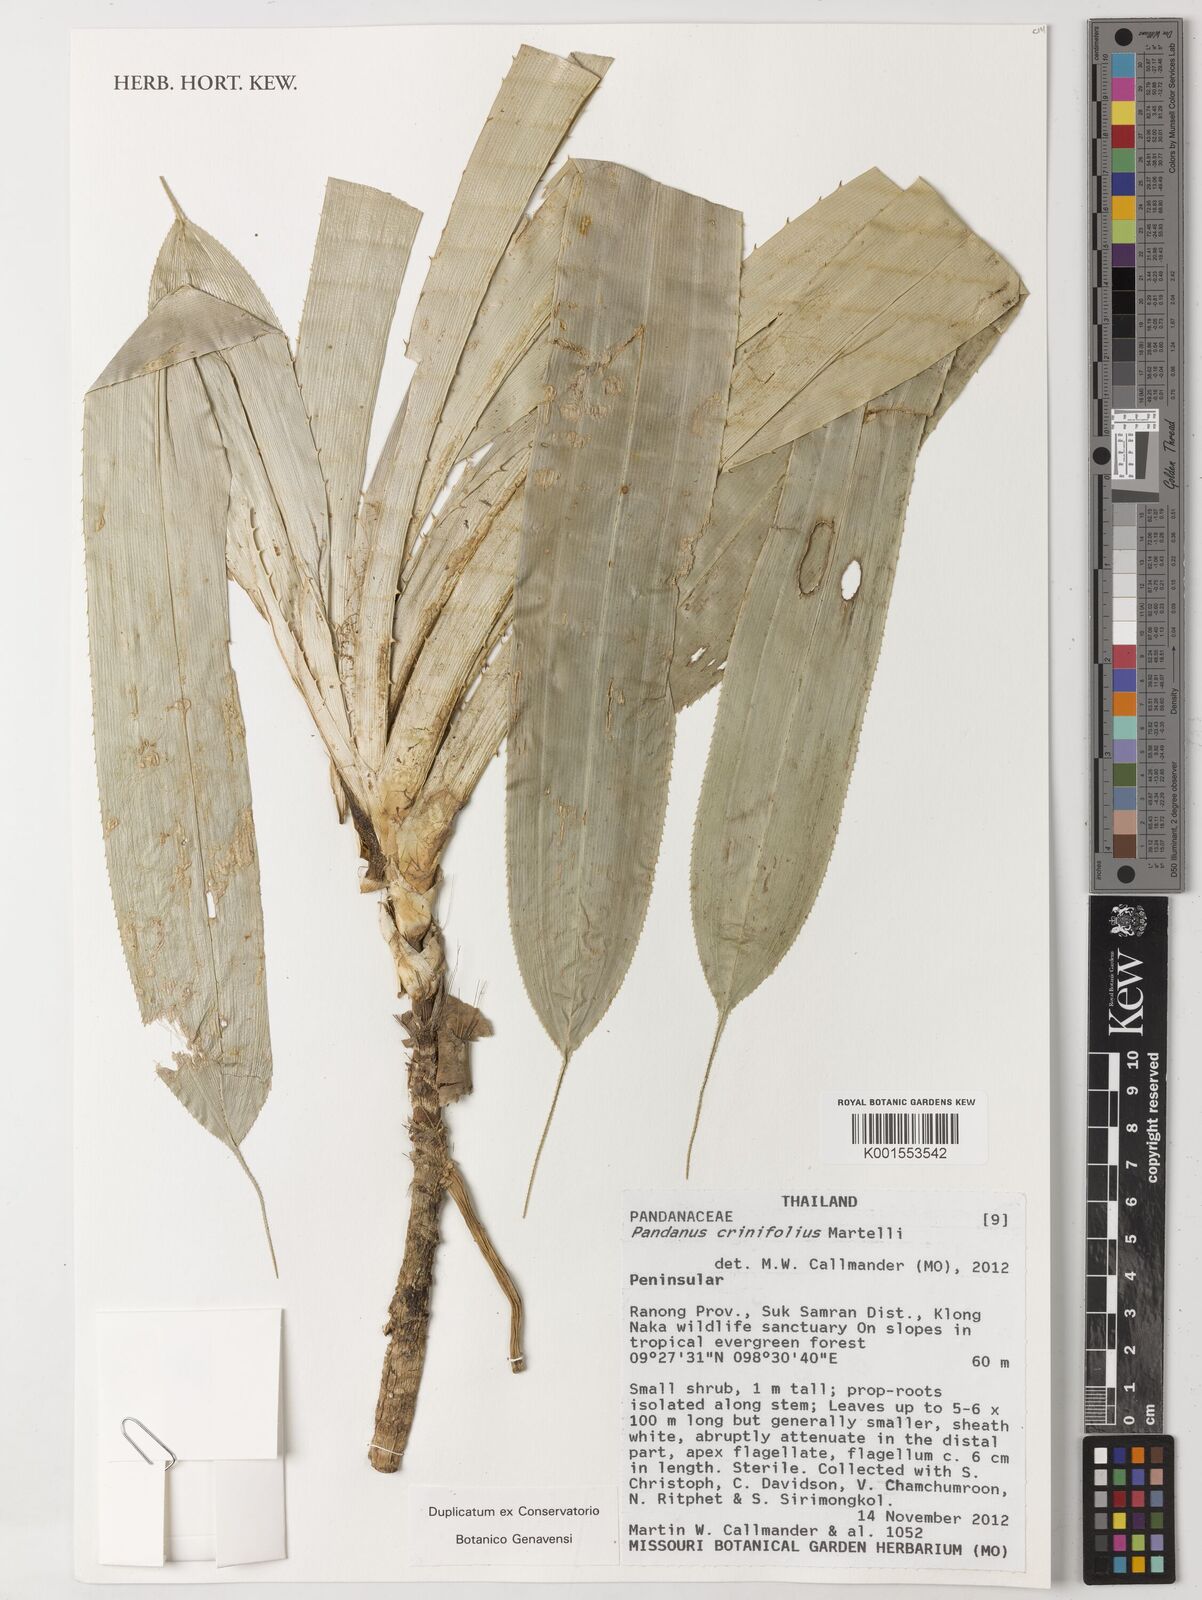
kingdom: Plantae
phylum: Tracheophyta
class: Liliopsida
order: Pandanales
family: Pandanaceae
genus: Pandanus
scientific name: Pandanus crinifolius
